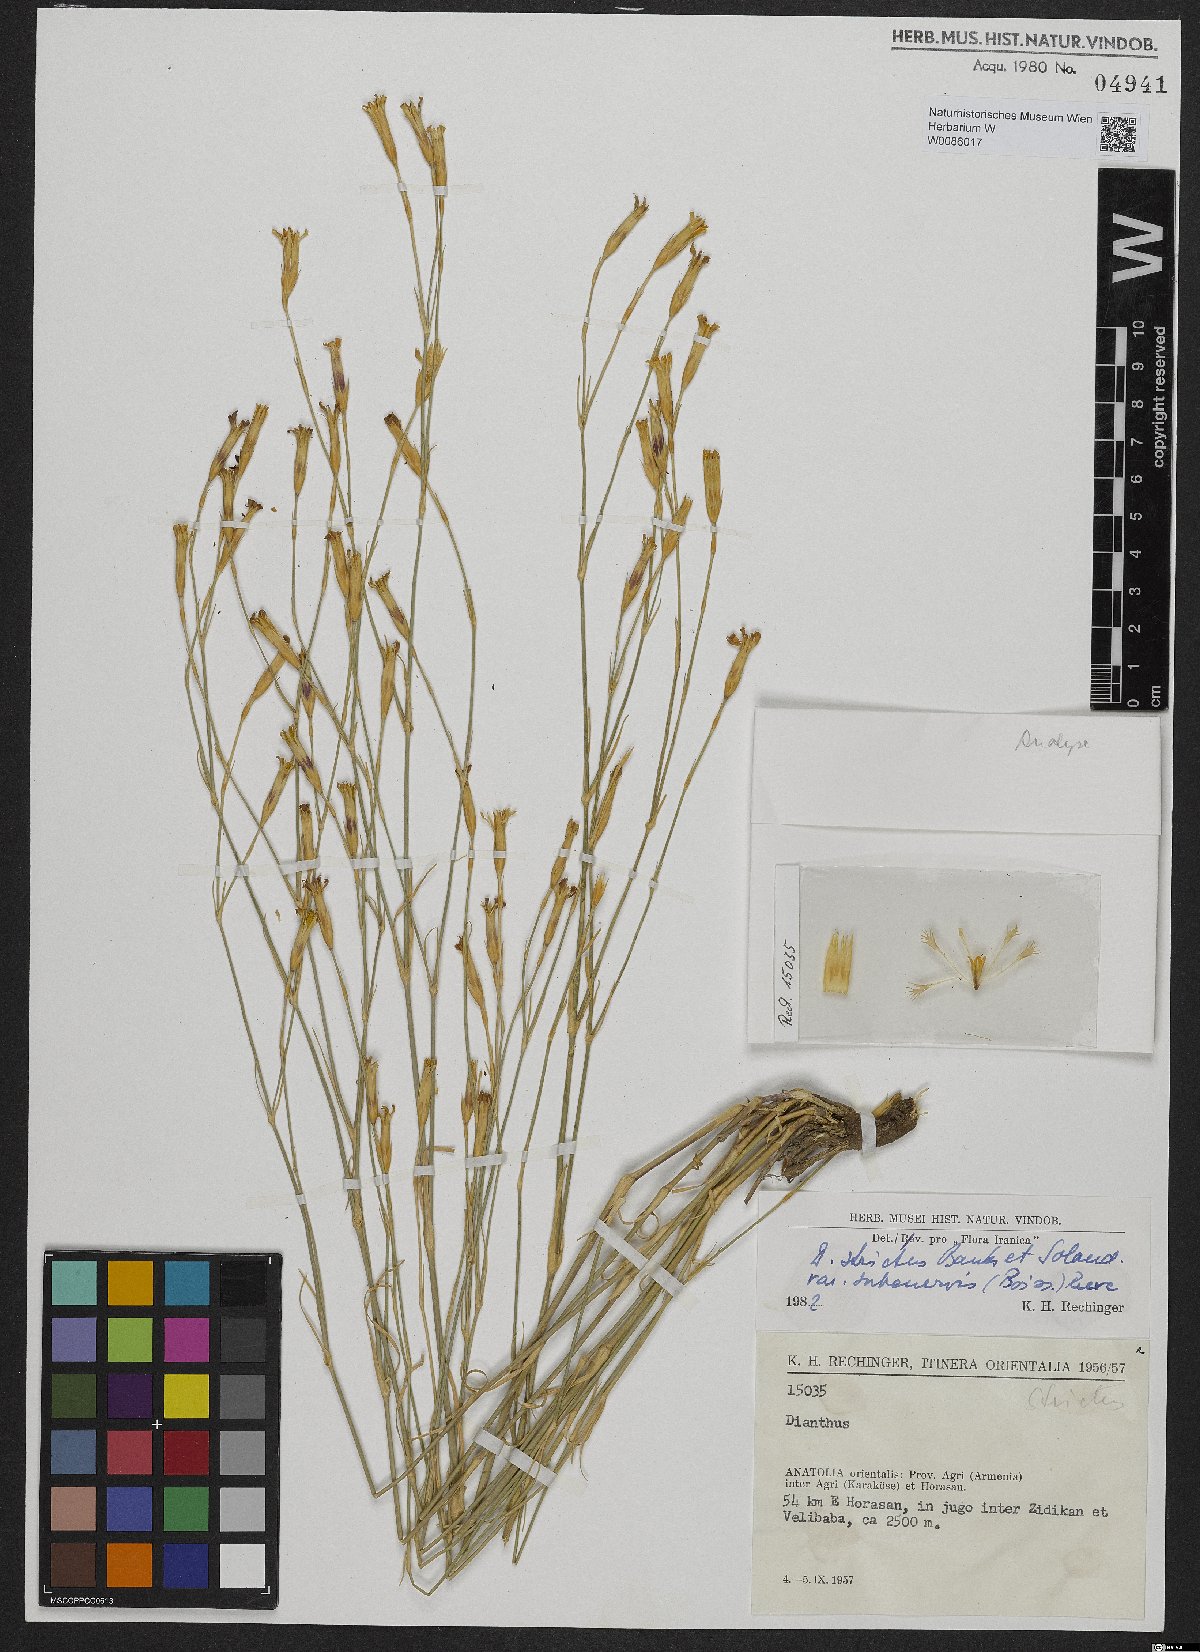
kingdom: Plantae
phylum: Tracheophyta
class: Magnoliopsida
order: Caryophyllales
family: Caryophyllaceae
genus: Dianthus
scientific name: Dianthus strictus
